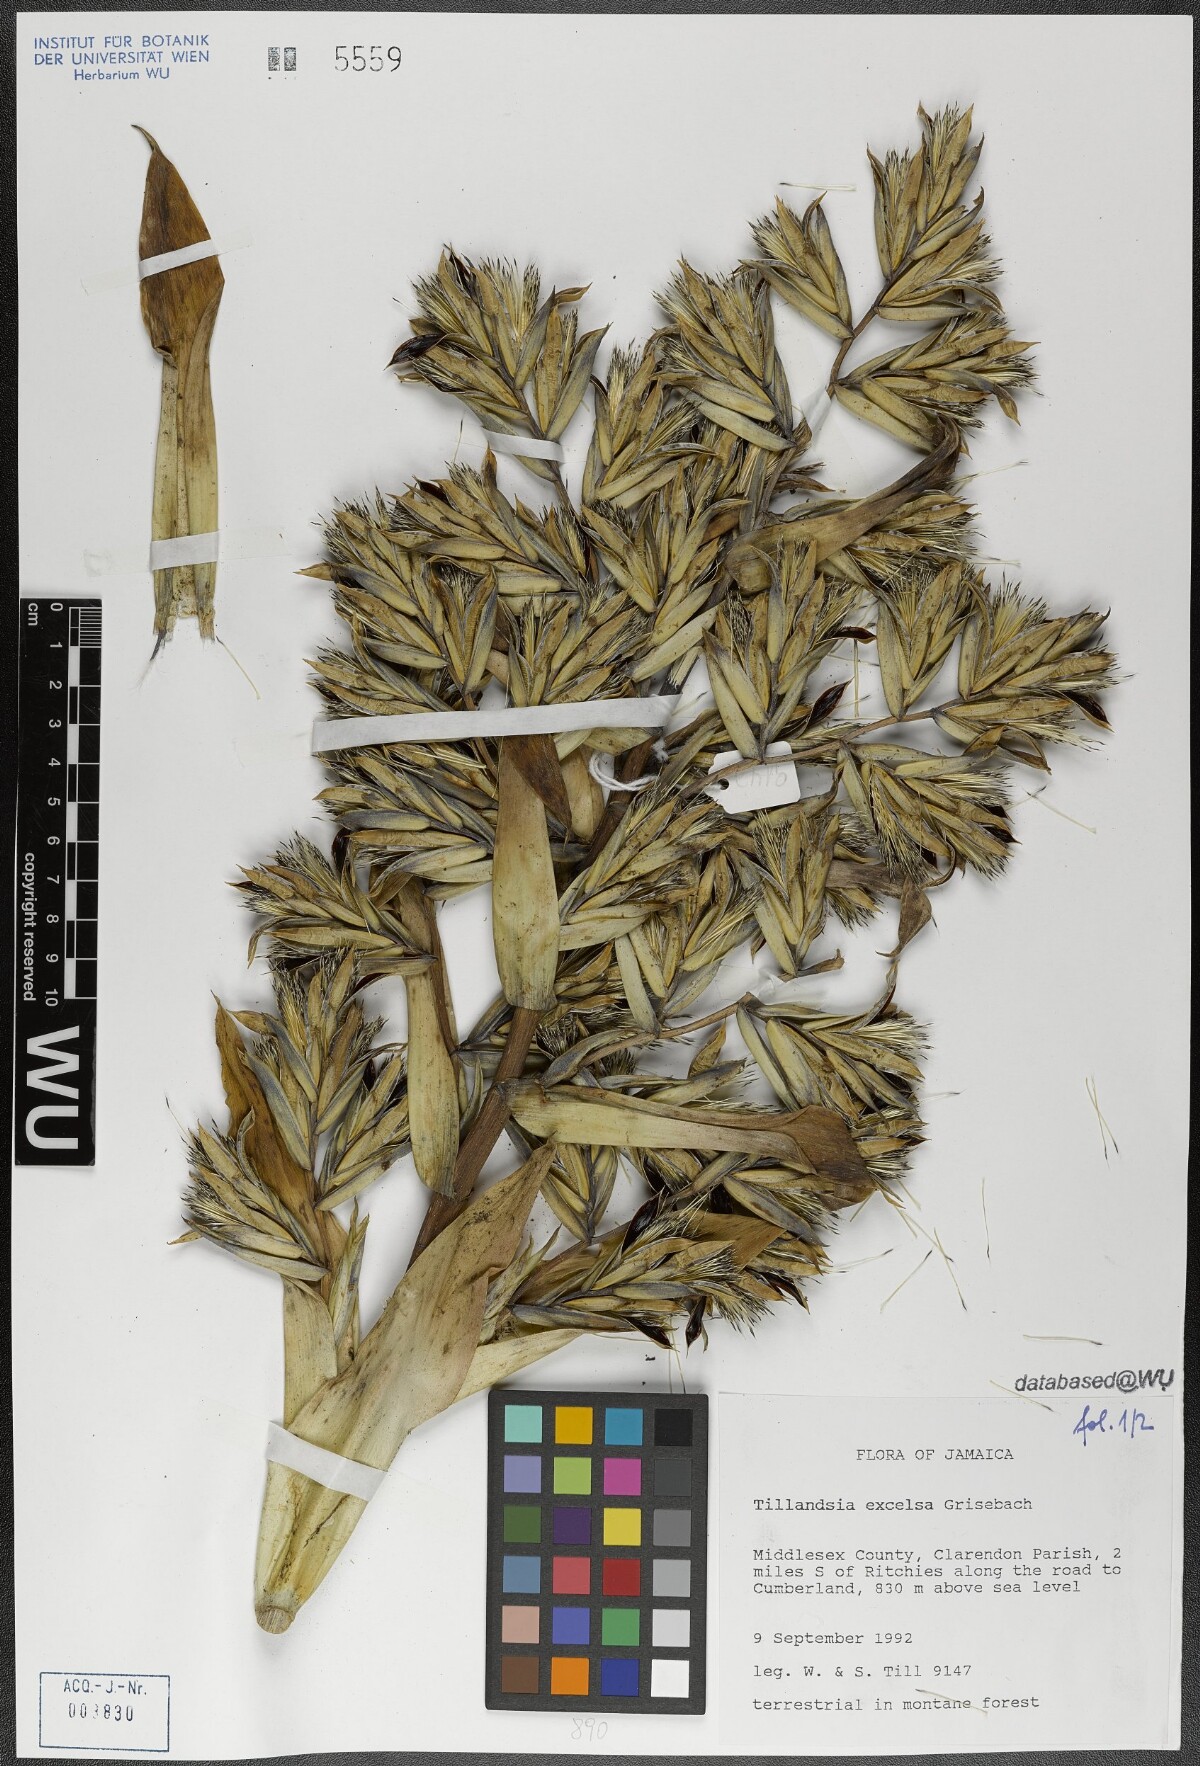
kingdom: Plantae
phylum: Tracheophyta
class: Liliopsida
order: Poales
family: Bromeliaceae
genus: Tillandsia
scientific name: Tillandsia excelsa
